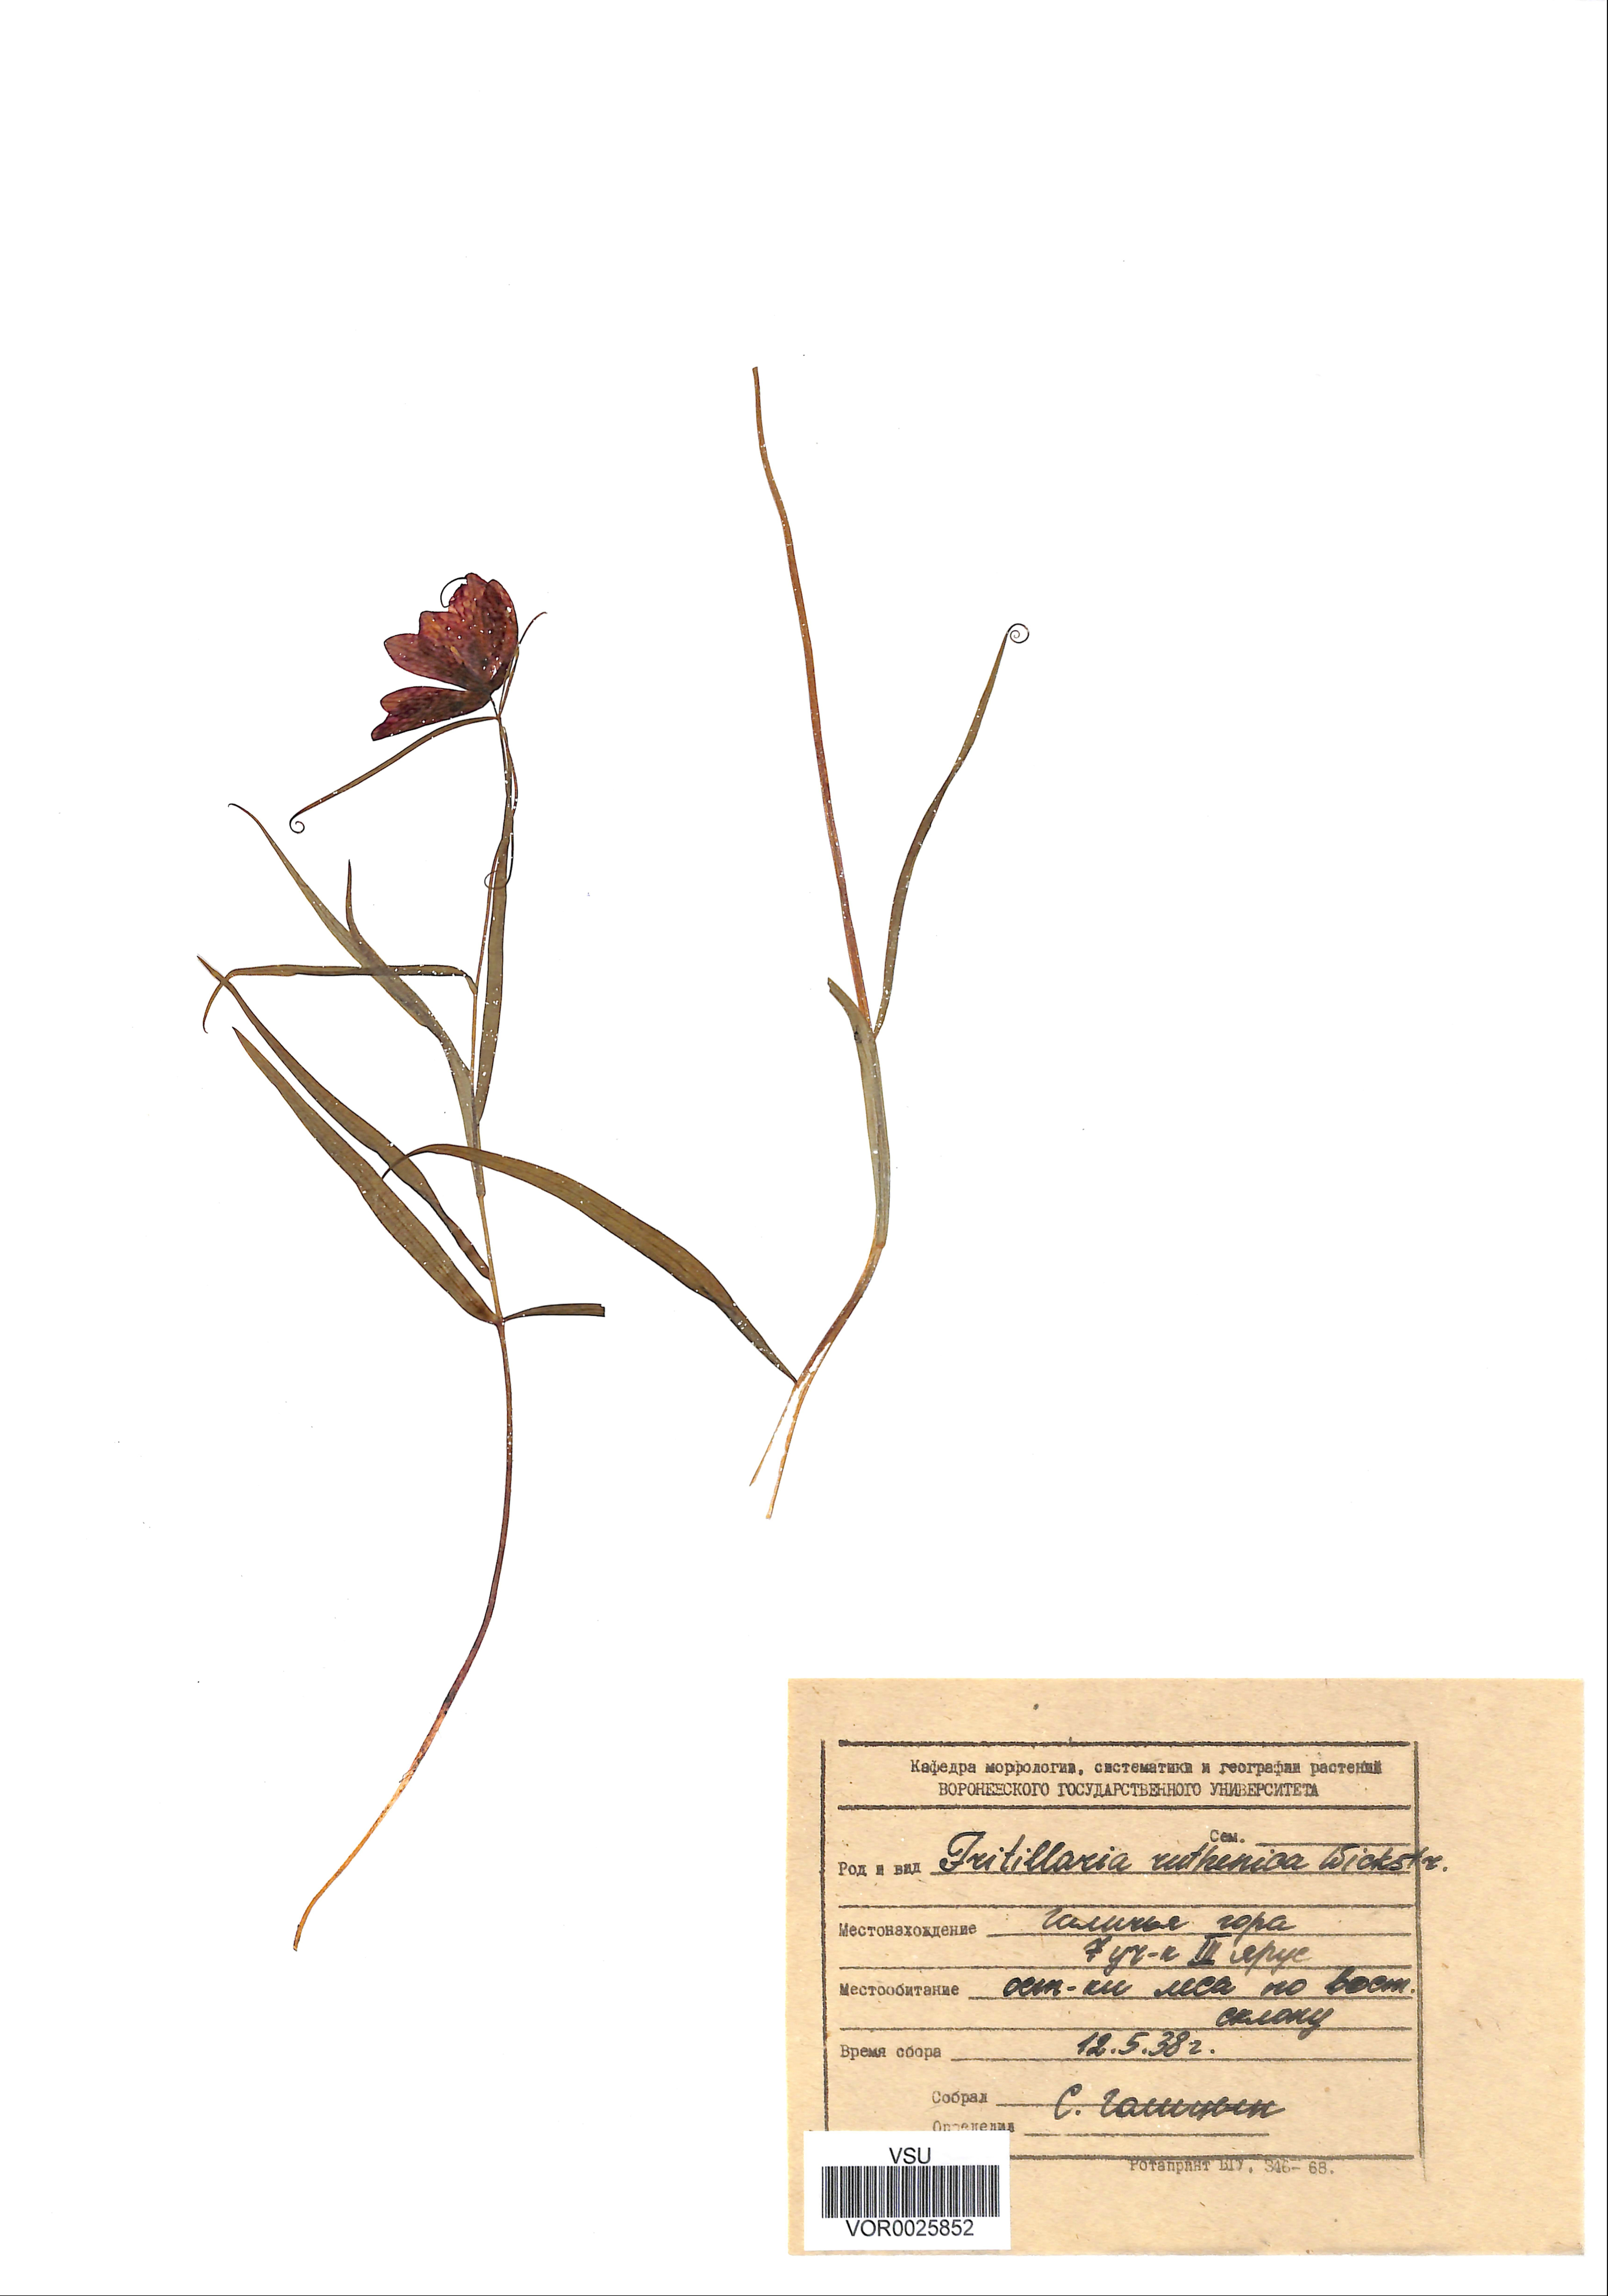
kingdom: Plantae
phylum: Tracheophyta
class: Liliopsida
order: Liliales
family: Liliaceae
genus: Fritillaria
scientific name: Fritillaria ruthenica
